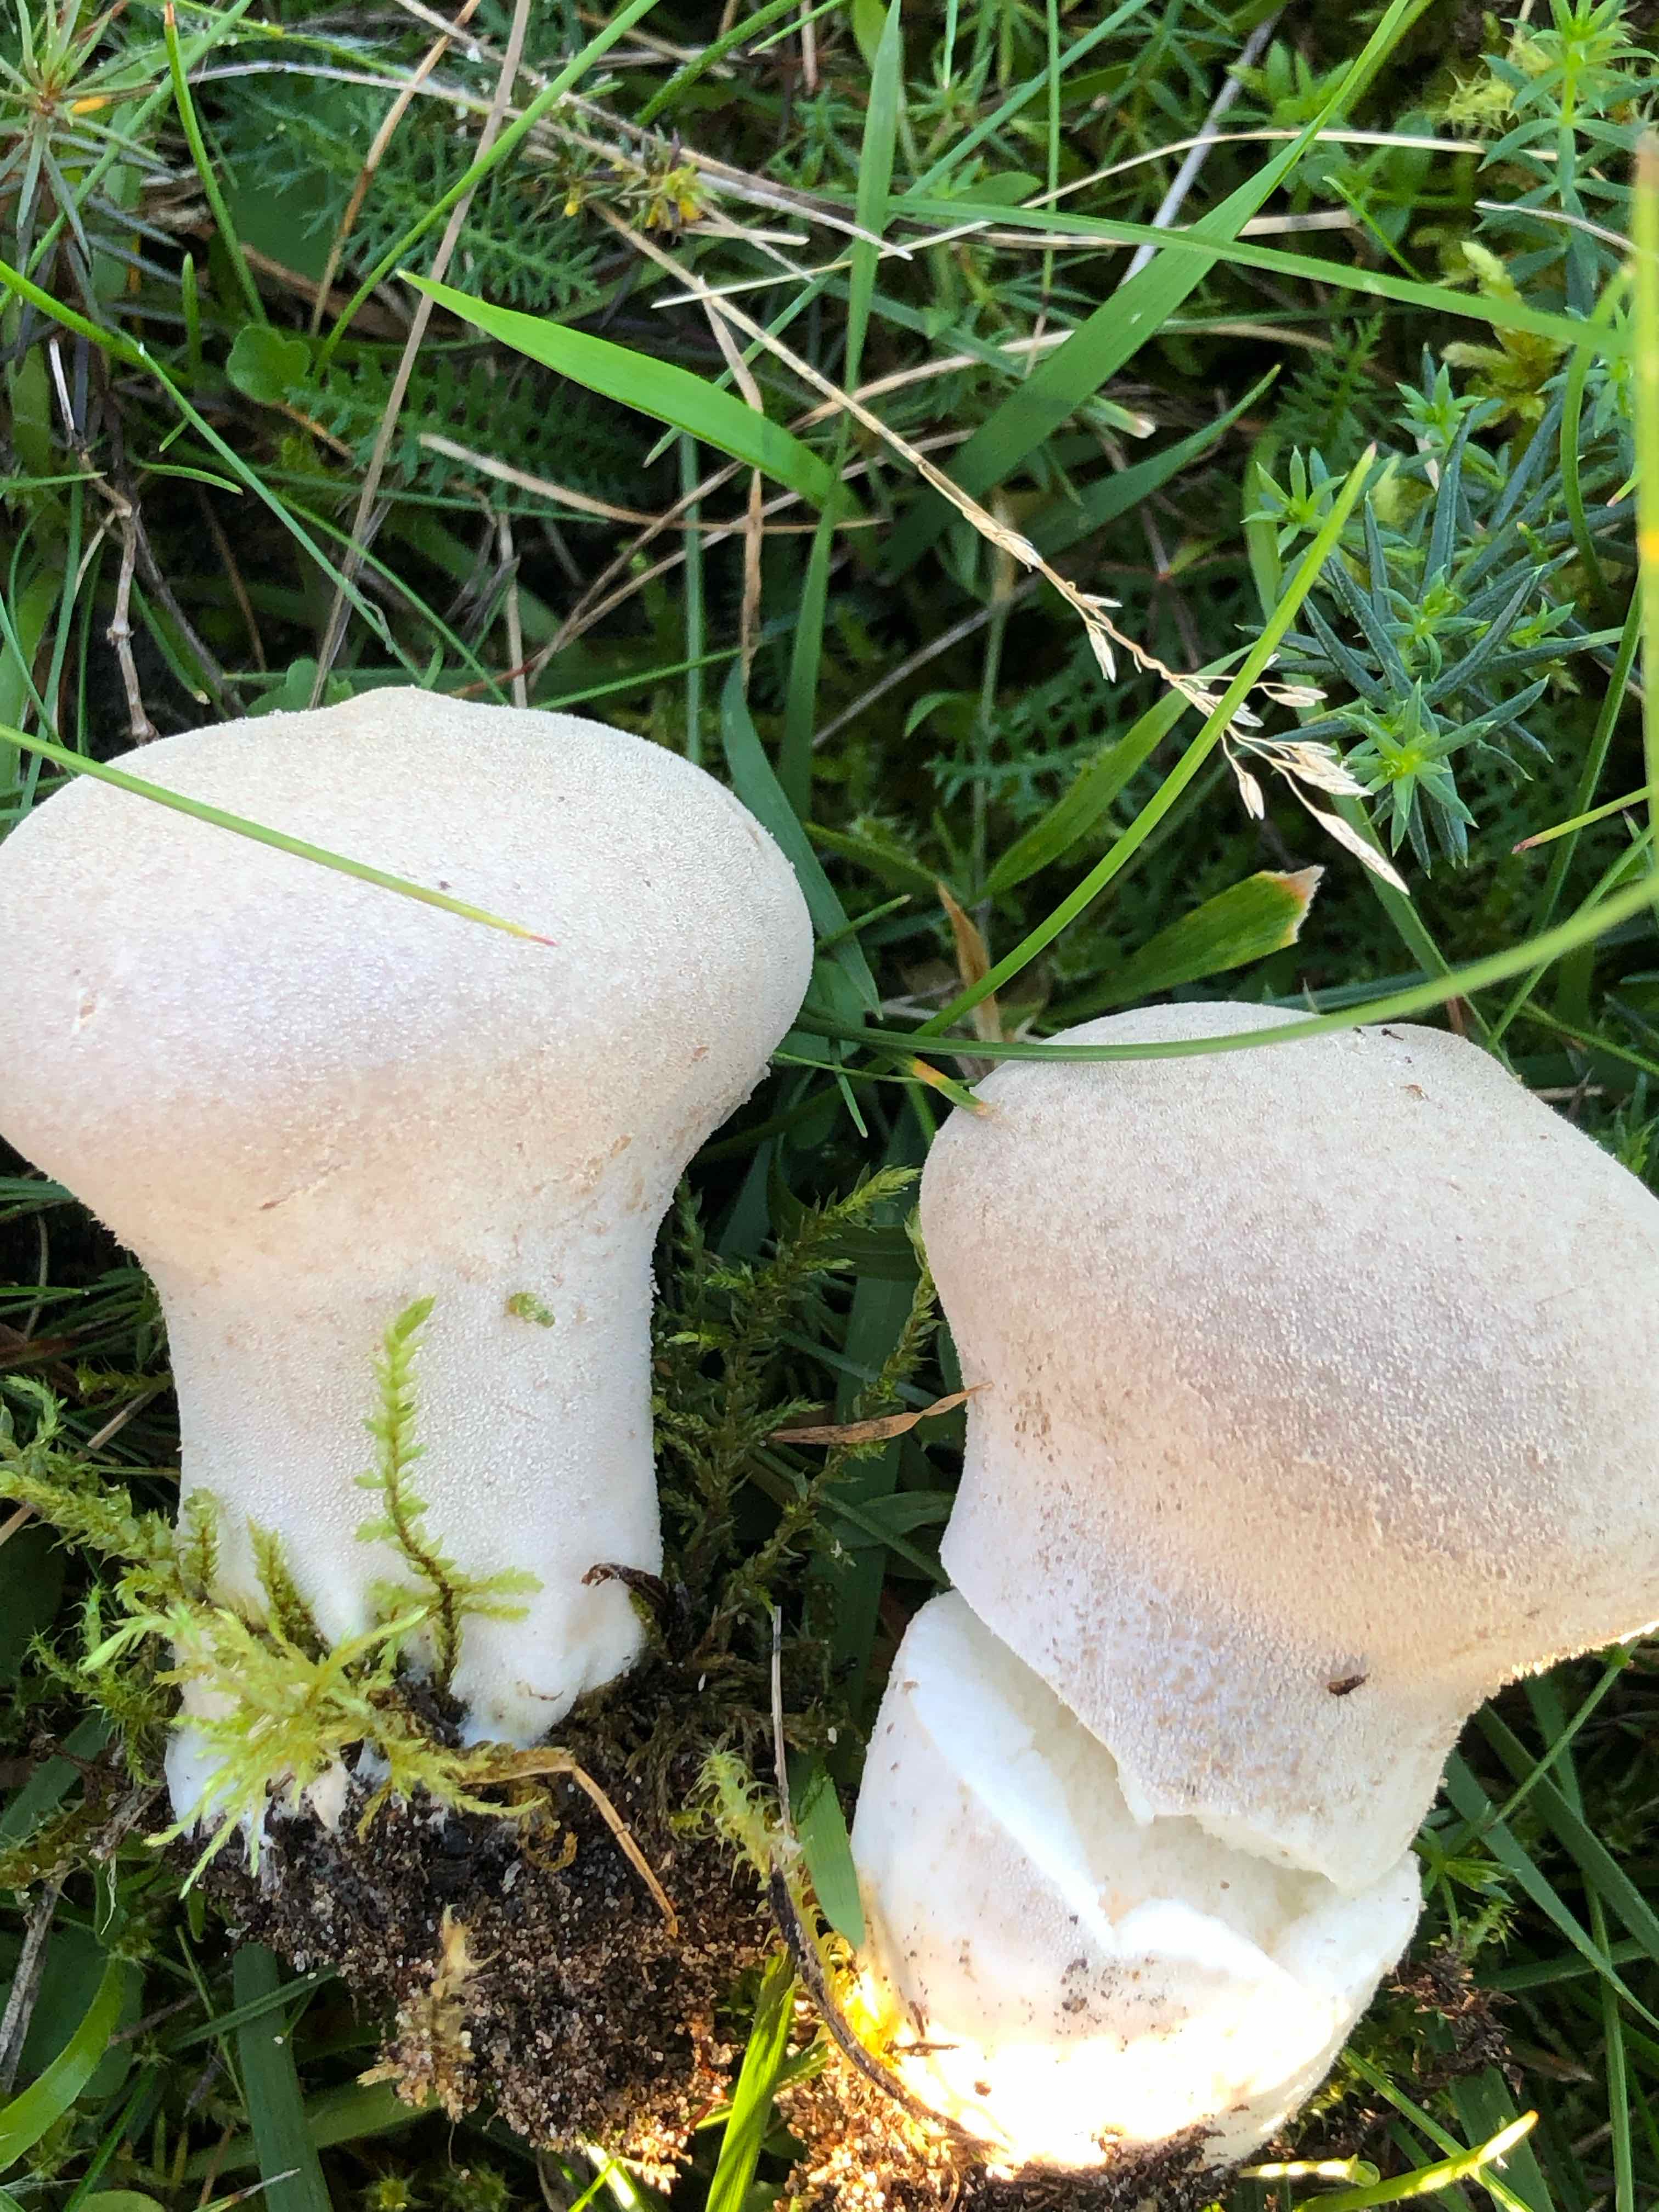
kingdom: Fungi
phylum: Basidiomycota
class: Agaricomycetes
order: Agaricales
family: Agaricaceae
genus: Lycoperdon
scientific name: Lycoperdon
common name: støvbold
